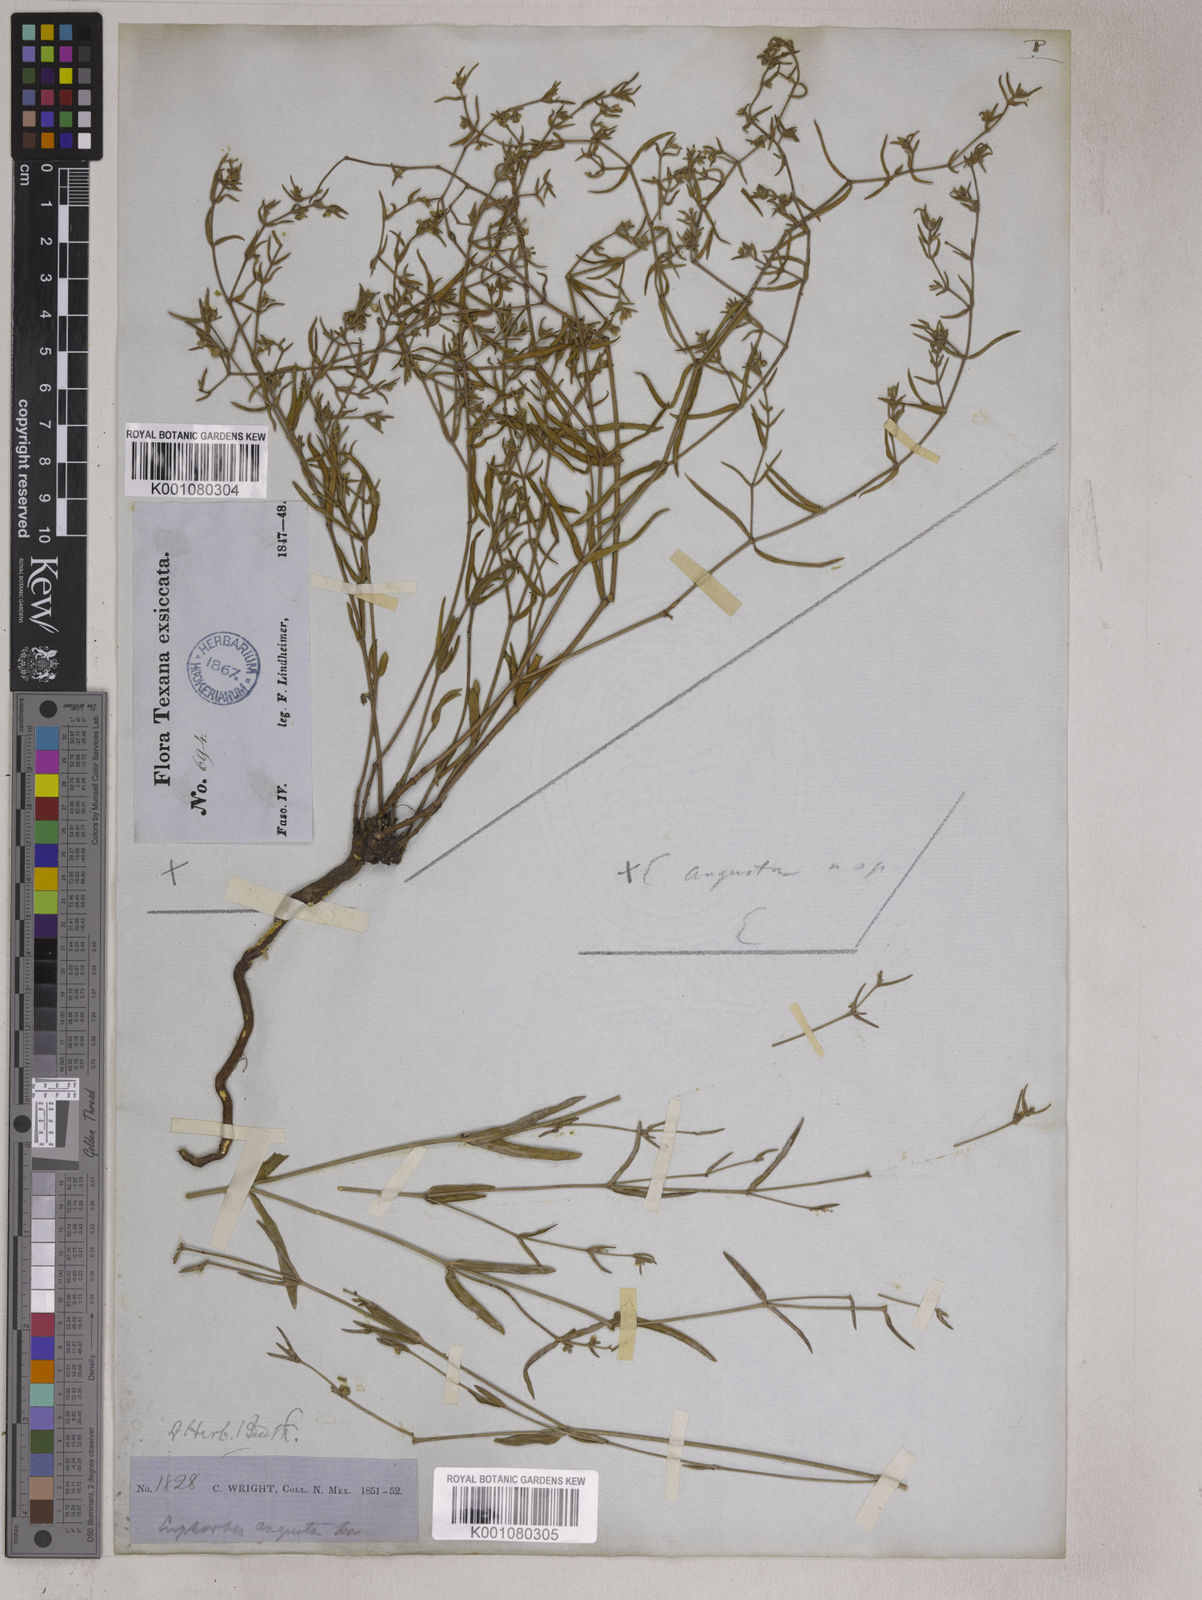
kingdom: Plantae
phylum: Tracheophyta
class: Magnoliopsida
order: Malpighiales
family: Euphorbiaceae
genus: Euphorbia
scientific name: Euphorbia angusta
